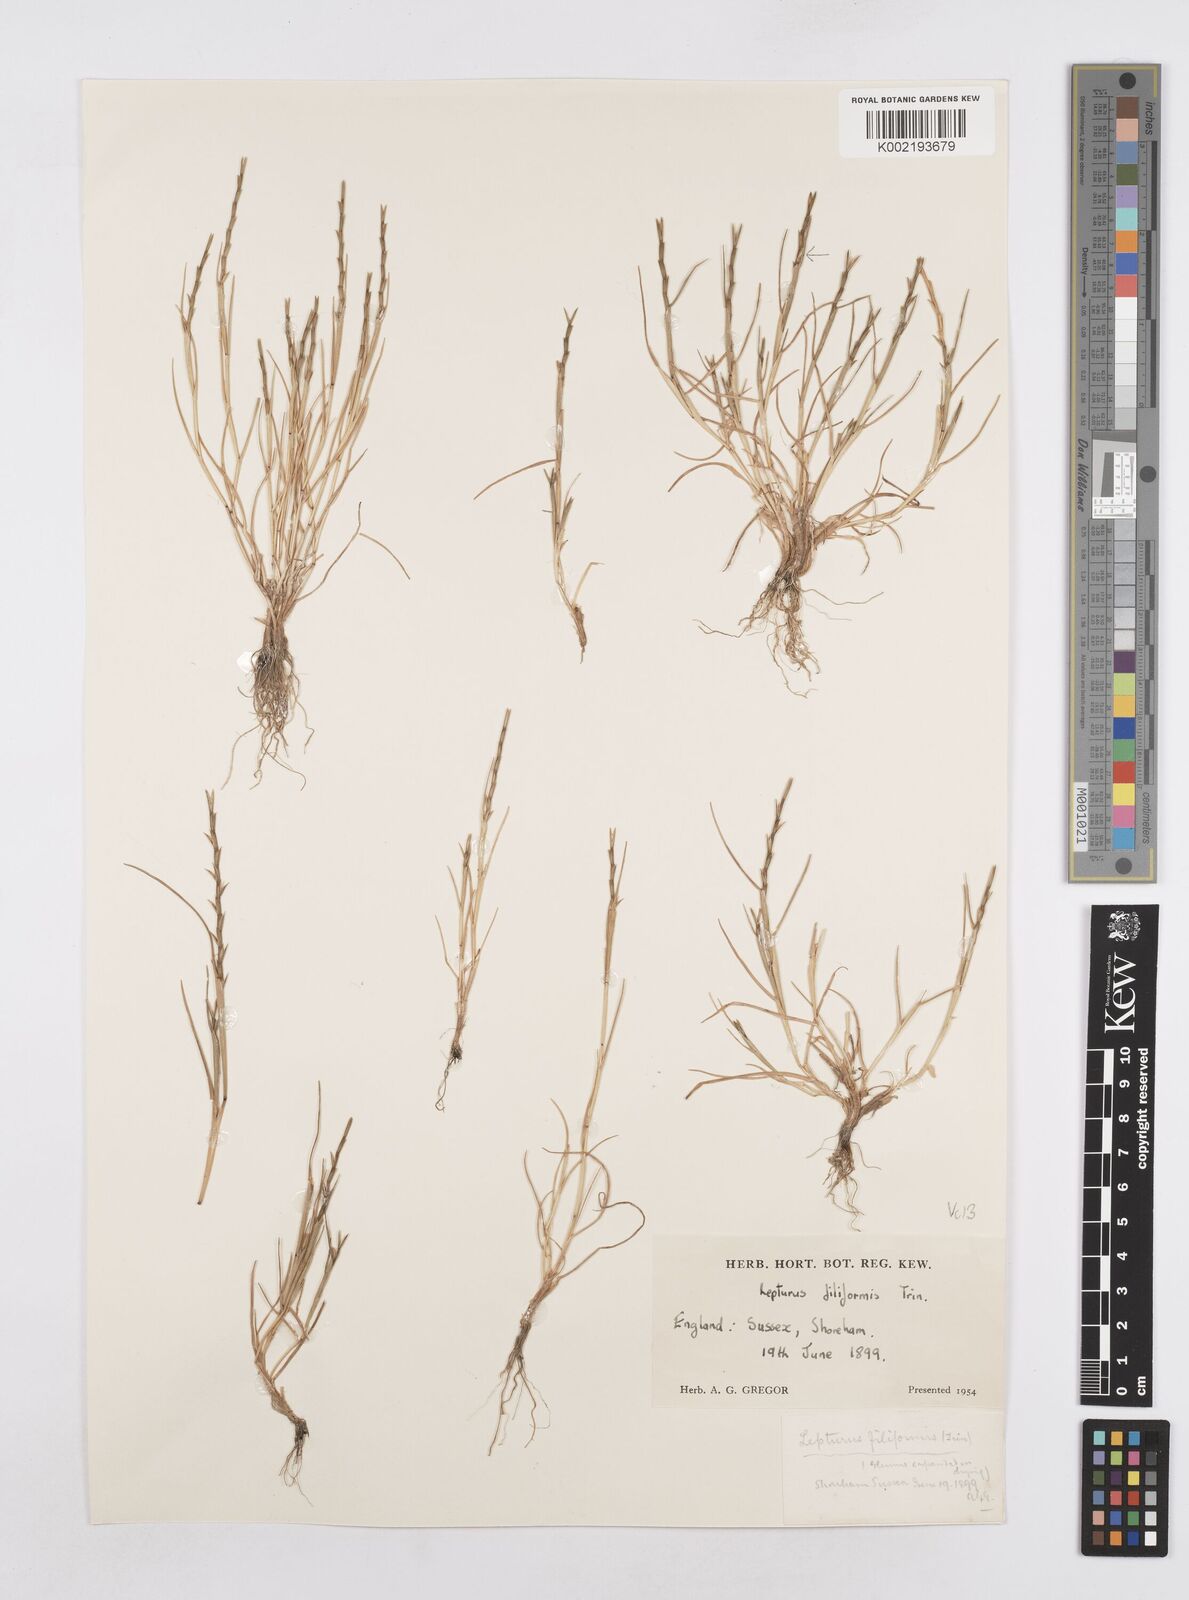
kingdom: Plantae
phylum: Tracheophyta
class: Liliopsida
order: Poales
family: Poaceae
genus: Parapholis
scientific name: Parapholis strigosa
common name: Hard-grass
